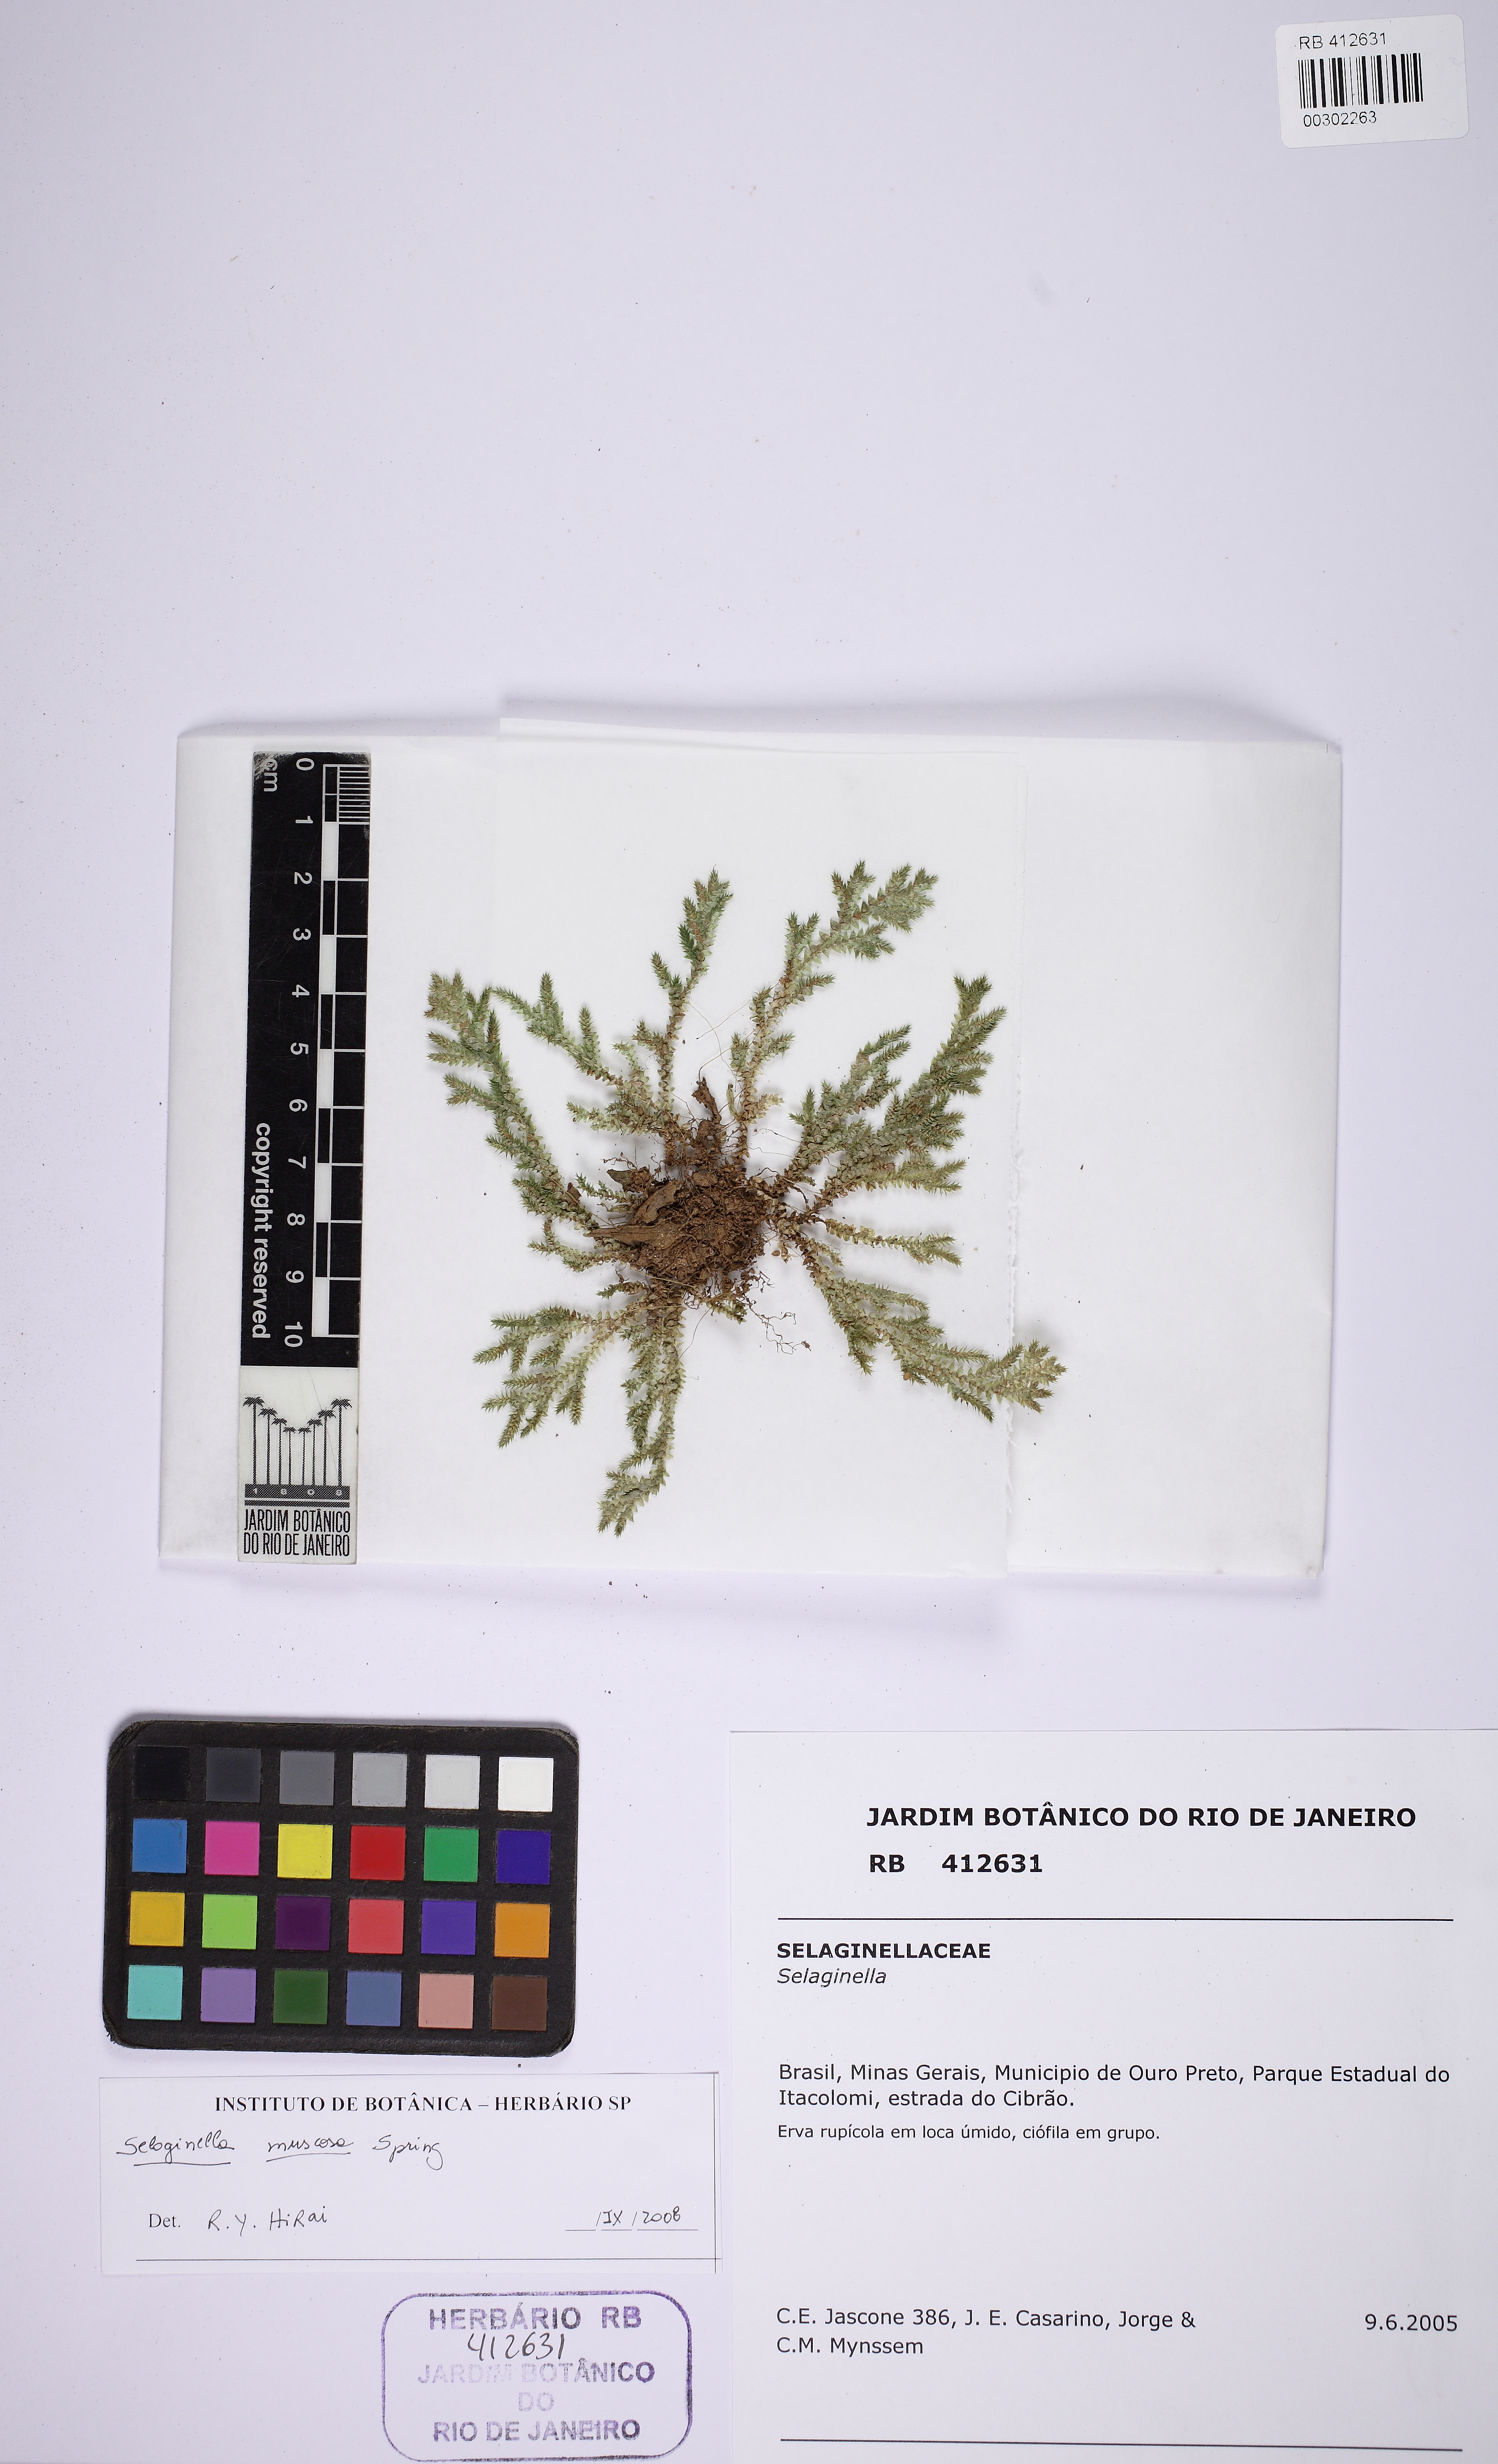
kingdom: Plantae
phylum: Tracheophyta
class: Lycopodiopsida
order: Selaginellales
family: Selaginellaceae
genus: Selaginella
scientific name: Selaginella
